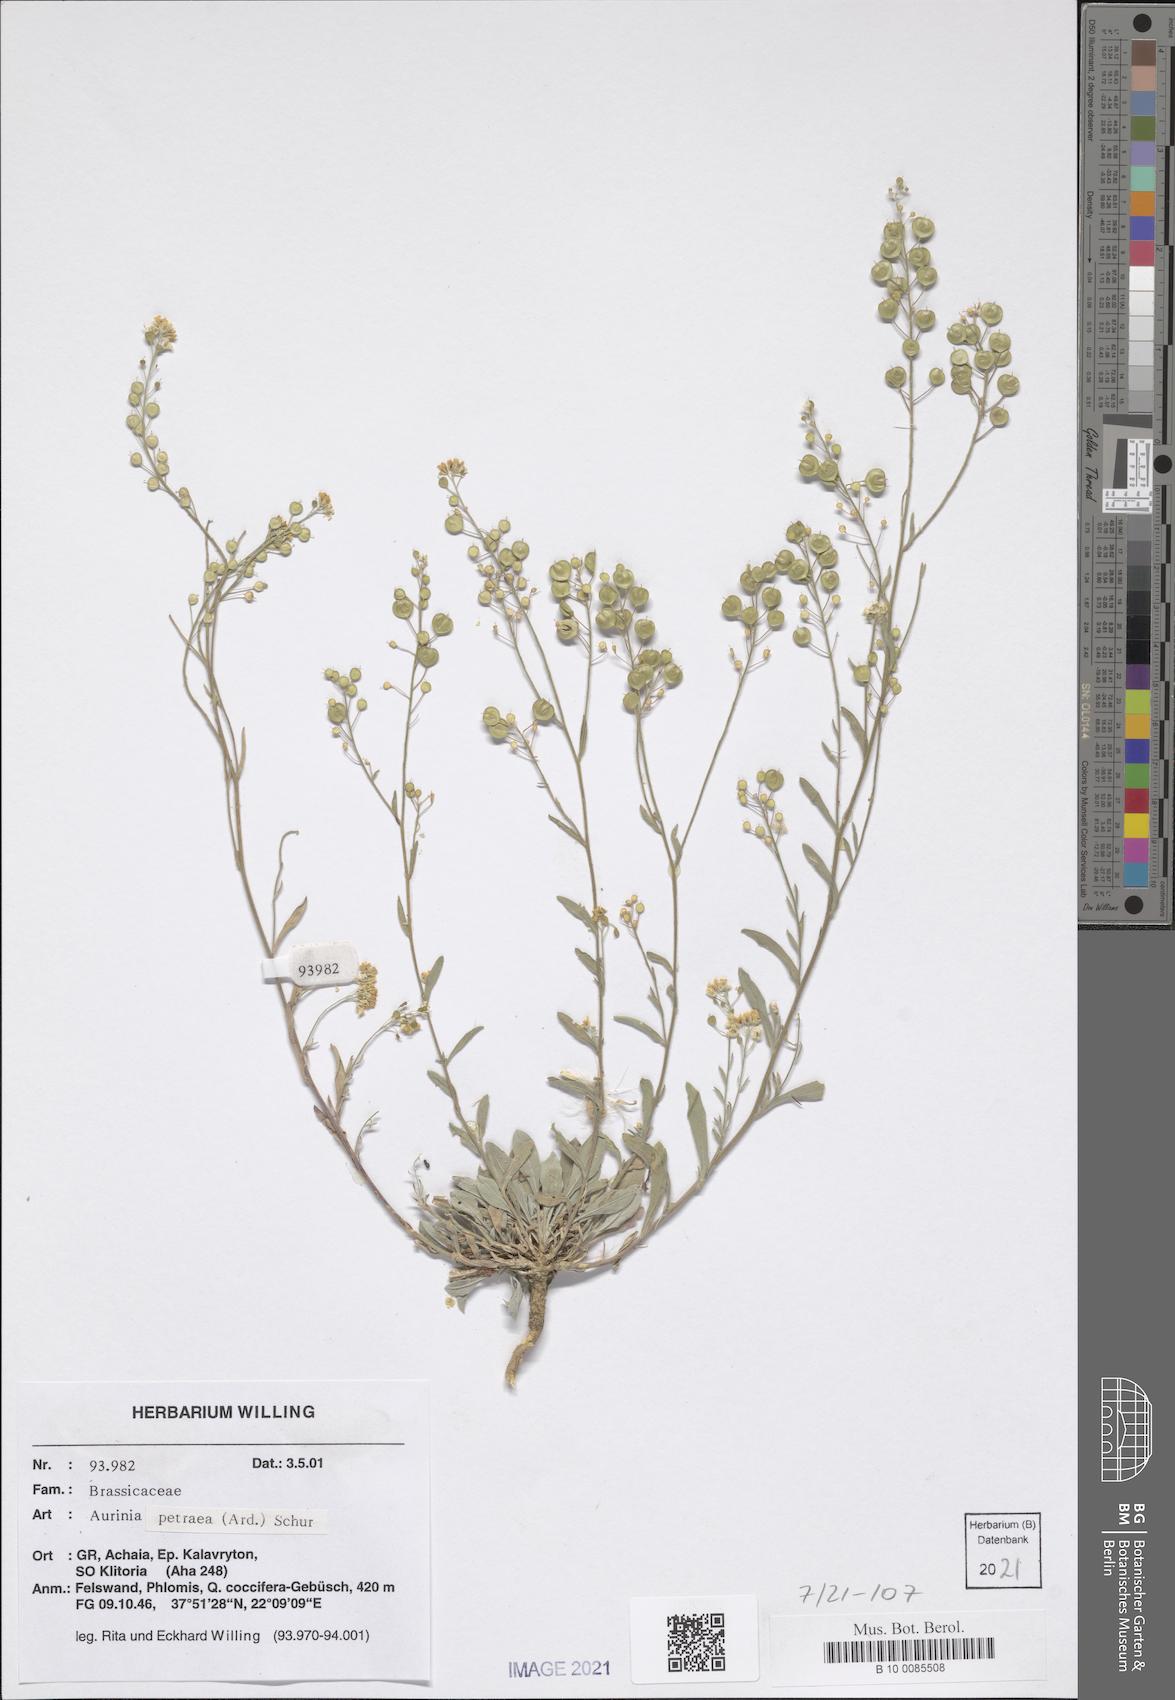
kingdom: Plantae
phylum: Tracheophyta
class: Magnoliopsida
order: Brassicales
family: Brassicaceae
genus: Aurinia
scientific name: Aurinia petraea
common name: Goldentuft
